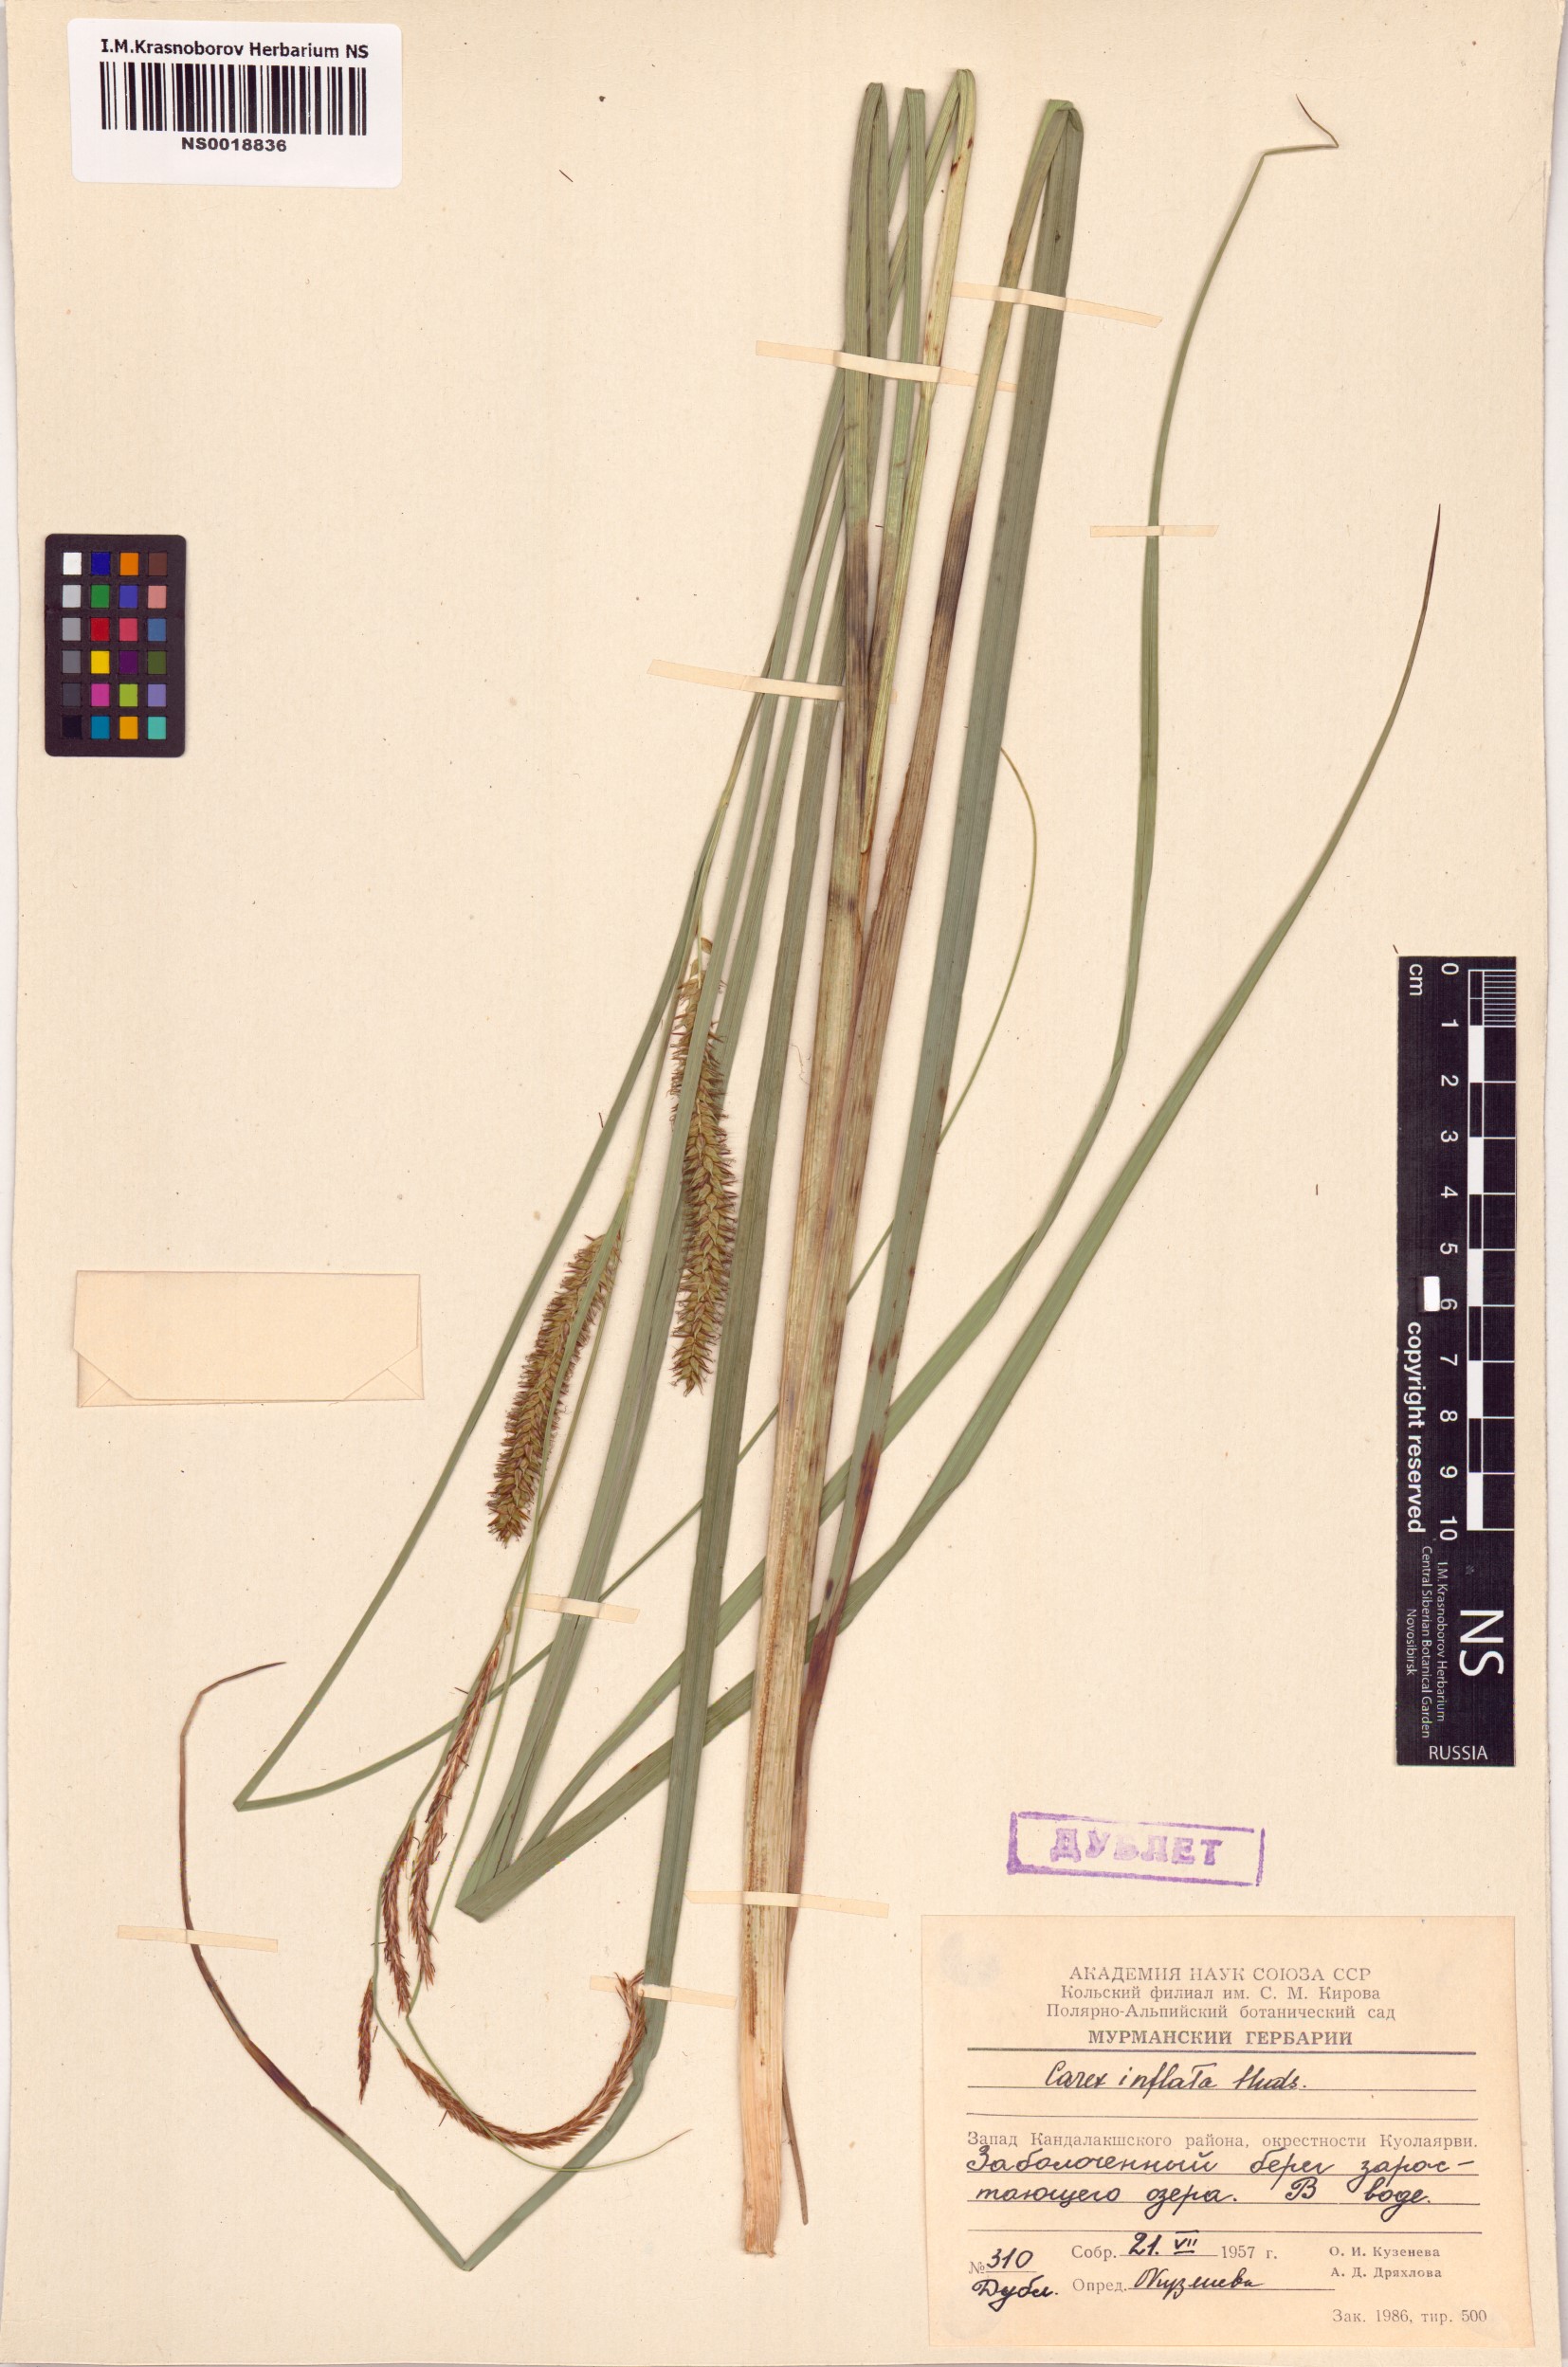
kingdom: Plantae
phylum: Tracheophyta
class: Liliopsida
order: Poales
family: Cyperaceae
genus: Carex
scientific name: Carex rostrata
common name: Bottle sedge
